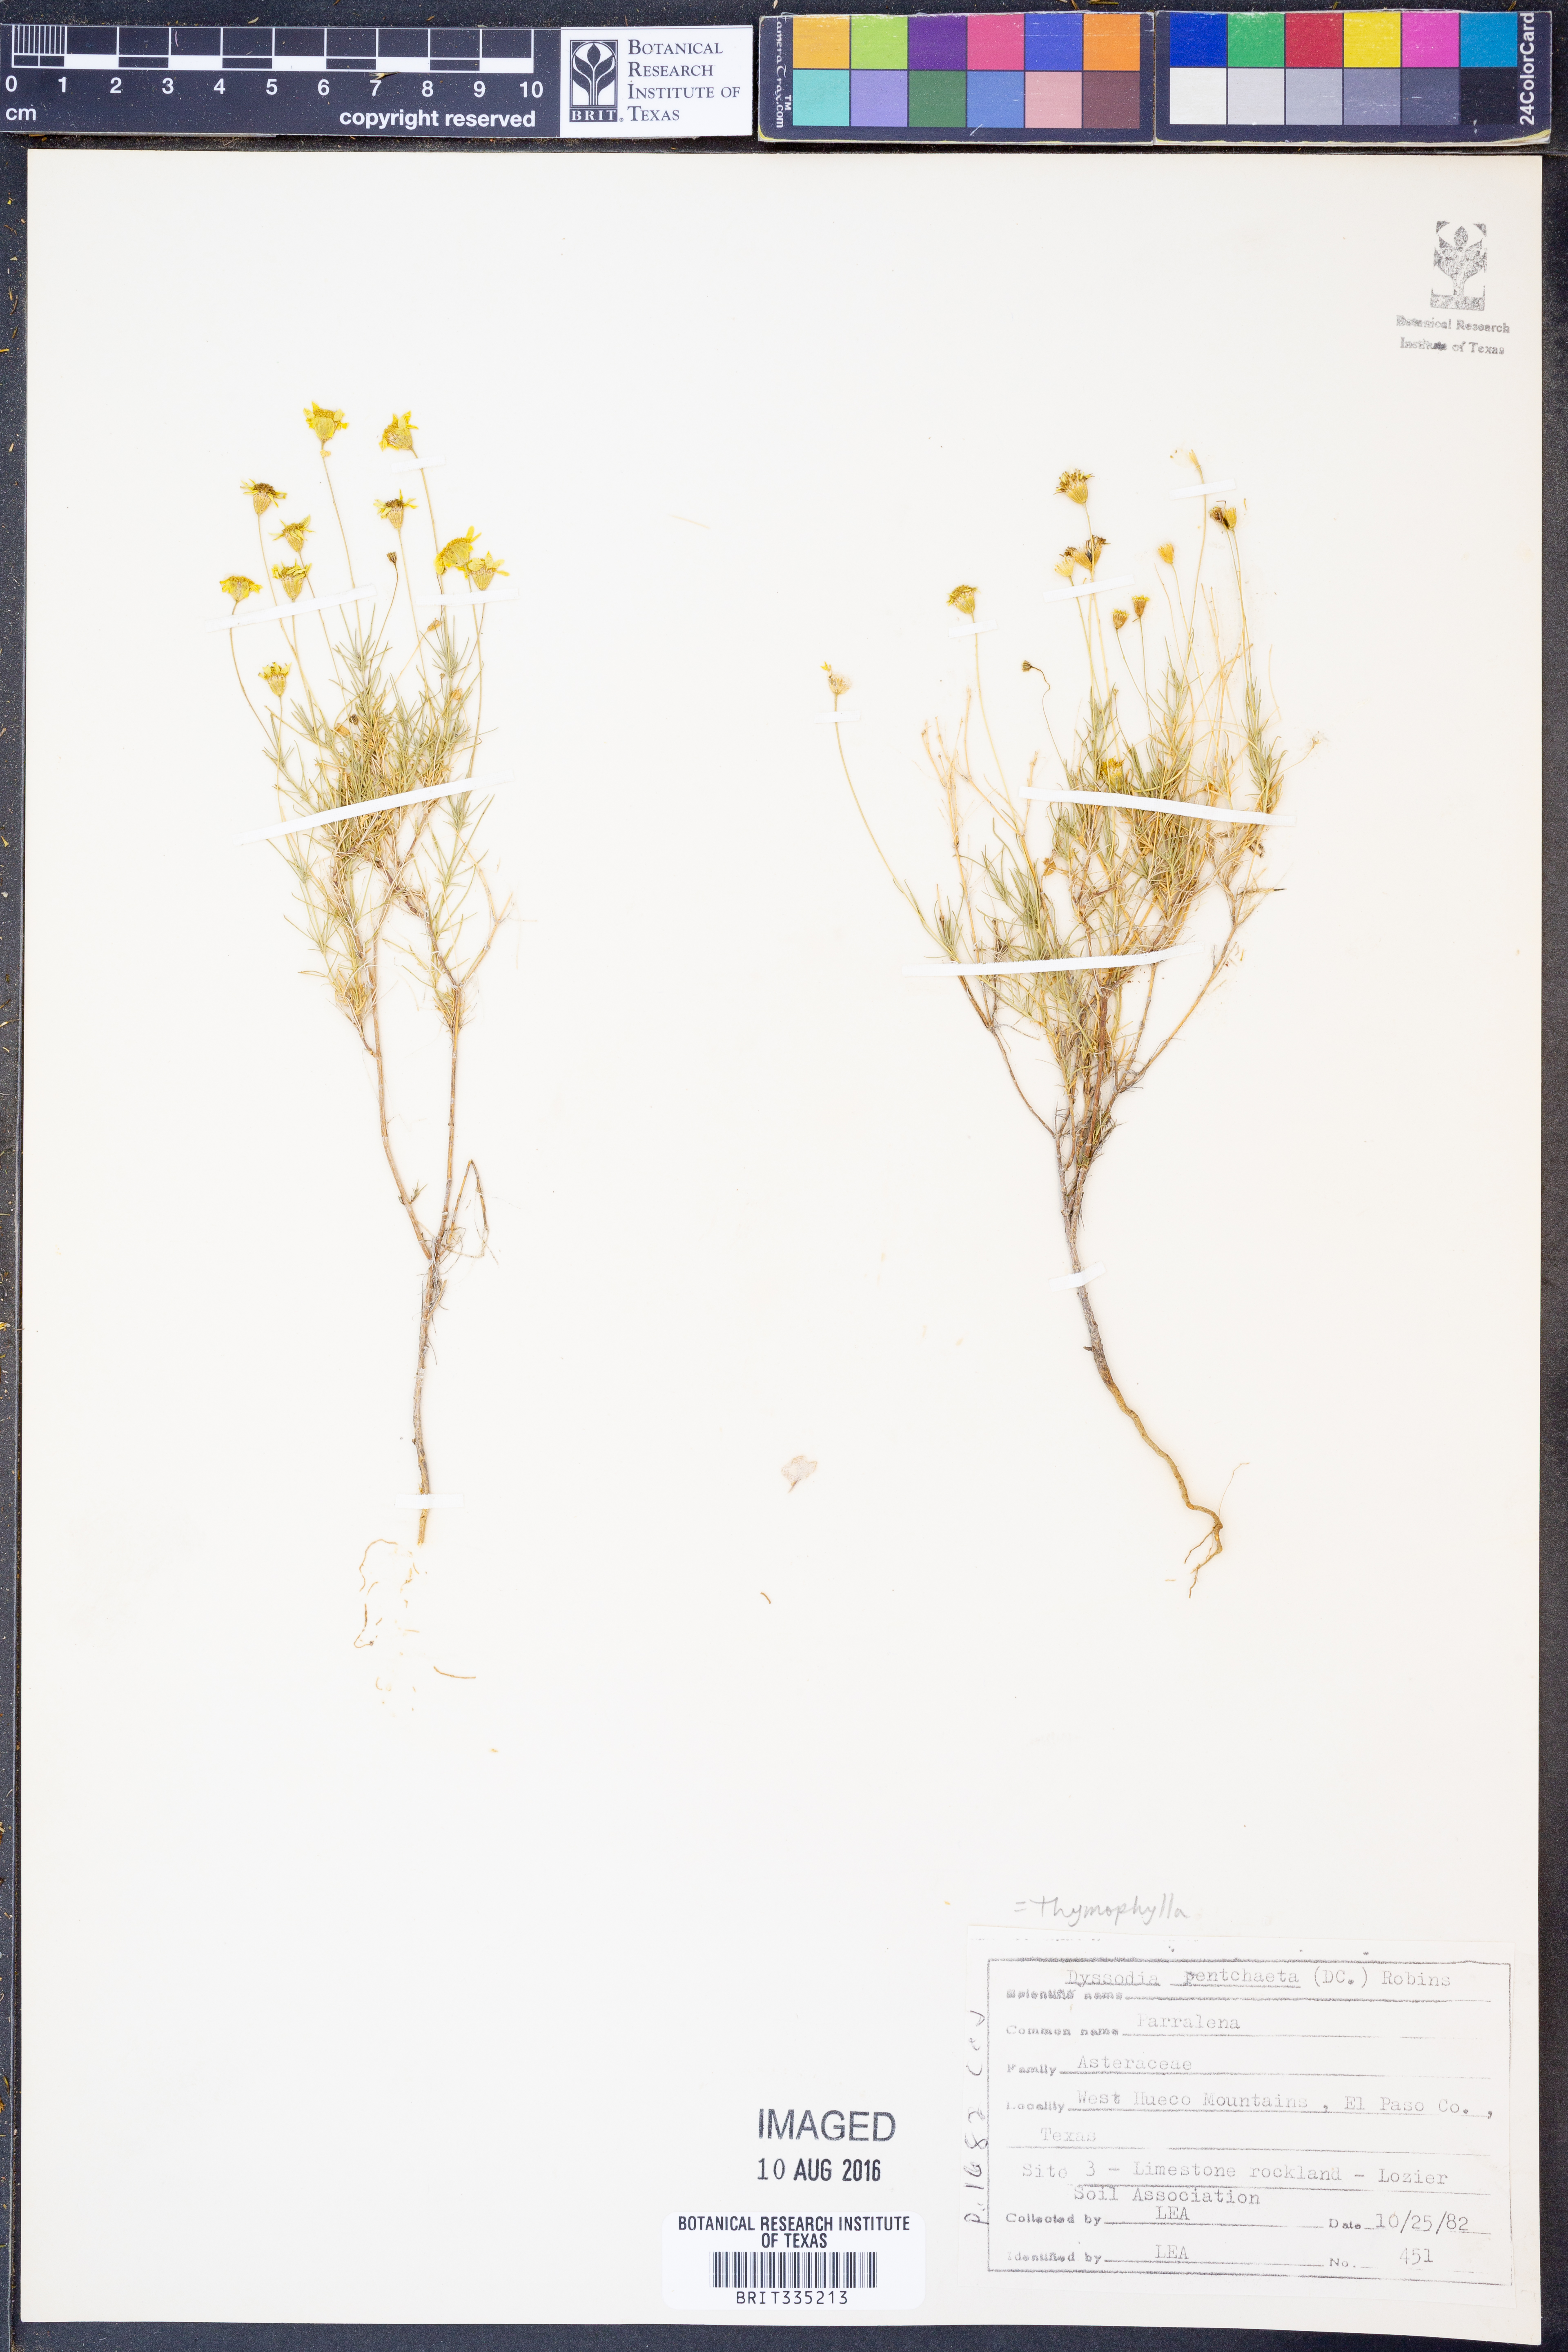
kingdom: Plantae
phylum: Tracheophyta
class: Magnoliopsida
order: Asterales
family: Asteraceae
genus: Thymophylla
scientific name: Thymophylla pentachaeta
